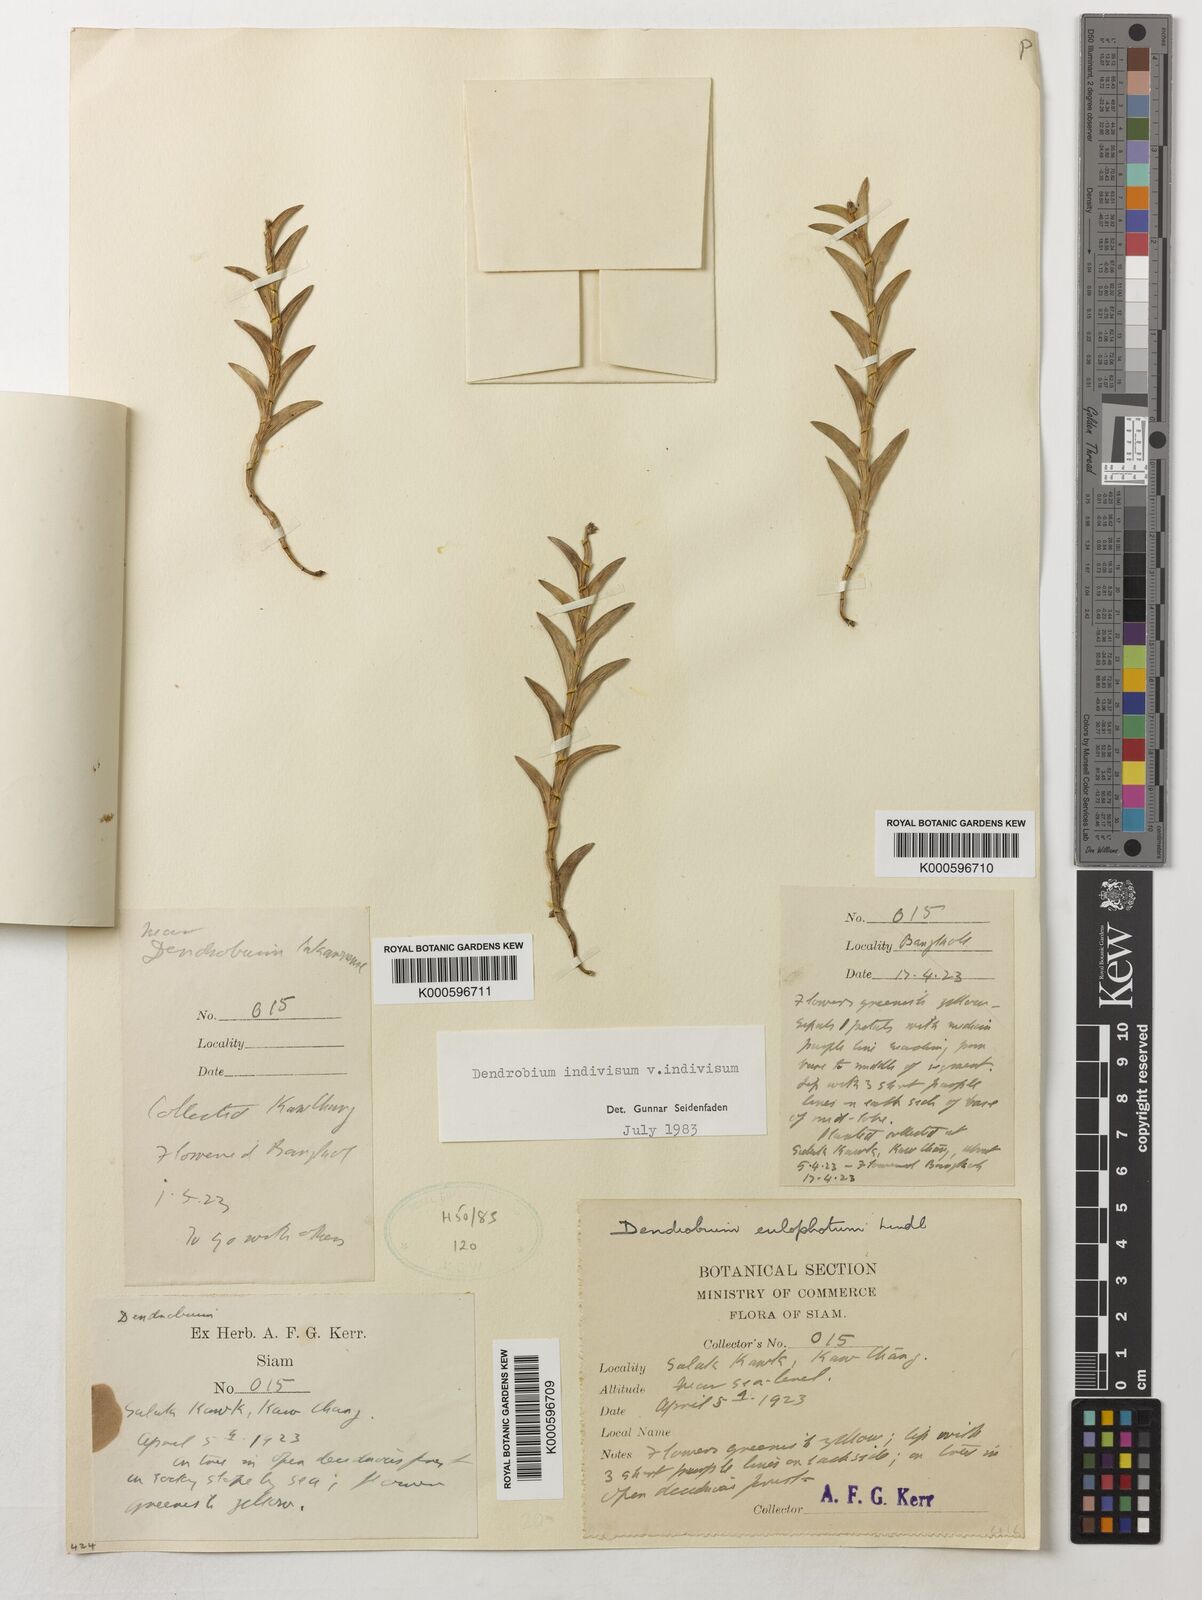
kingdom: Plantae
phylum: Tracheophyta
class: Liliopsida
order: Asparagales
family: Orchidaceae
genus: Dendrobium
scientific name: Dendrobium indivisum
